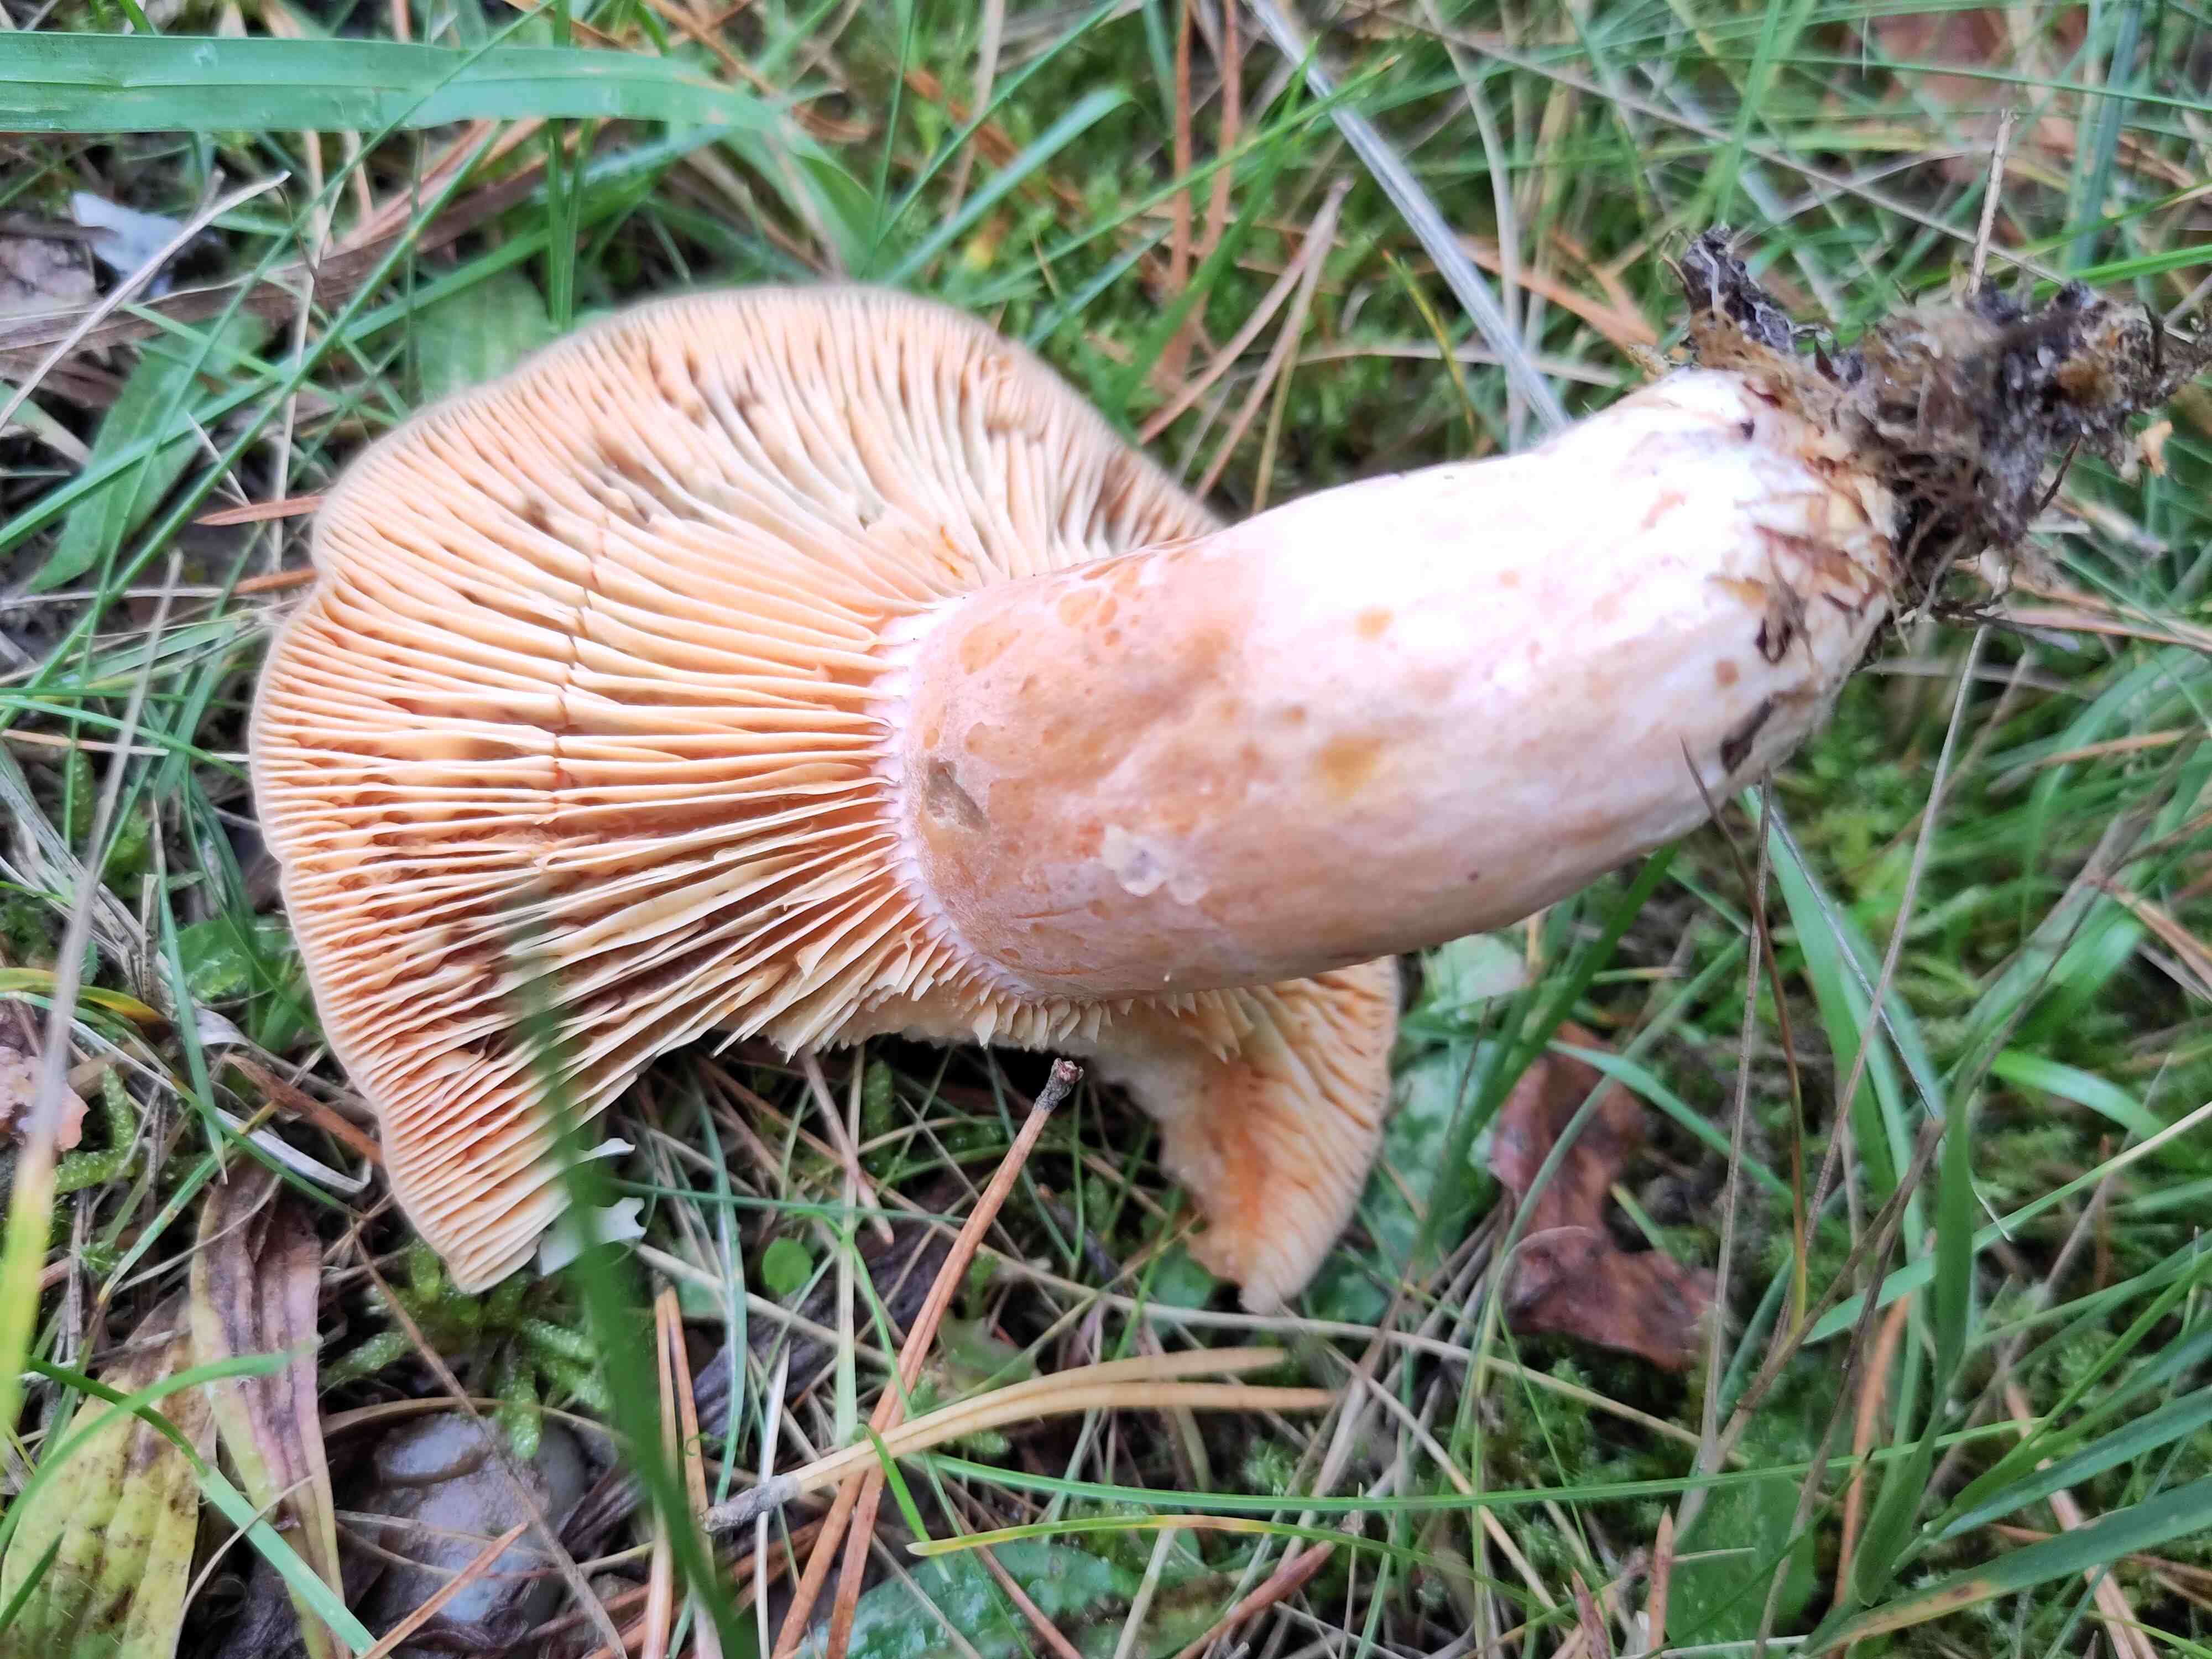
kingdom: Fungi
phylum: Basidiomycota
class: Agaricomycetes
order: Russulales
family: Russulaceae
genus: Lactarius
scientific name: Lactarius deliciosus
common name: velsmagende mælkehat
